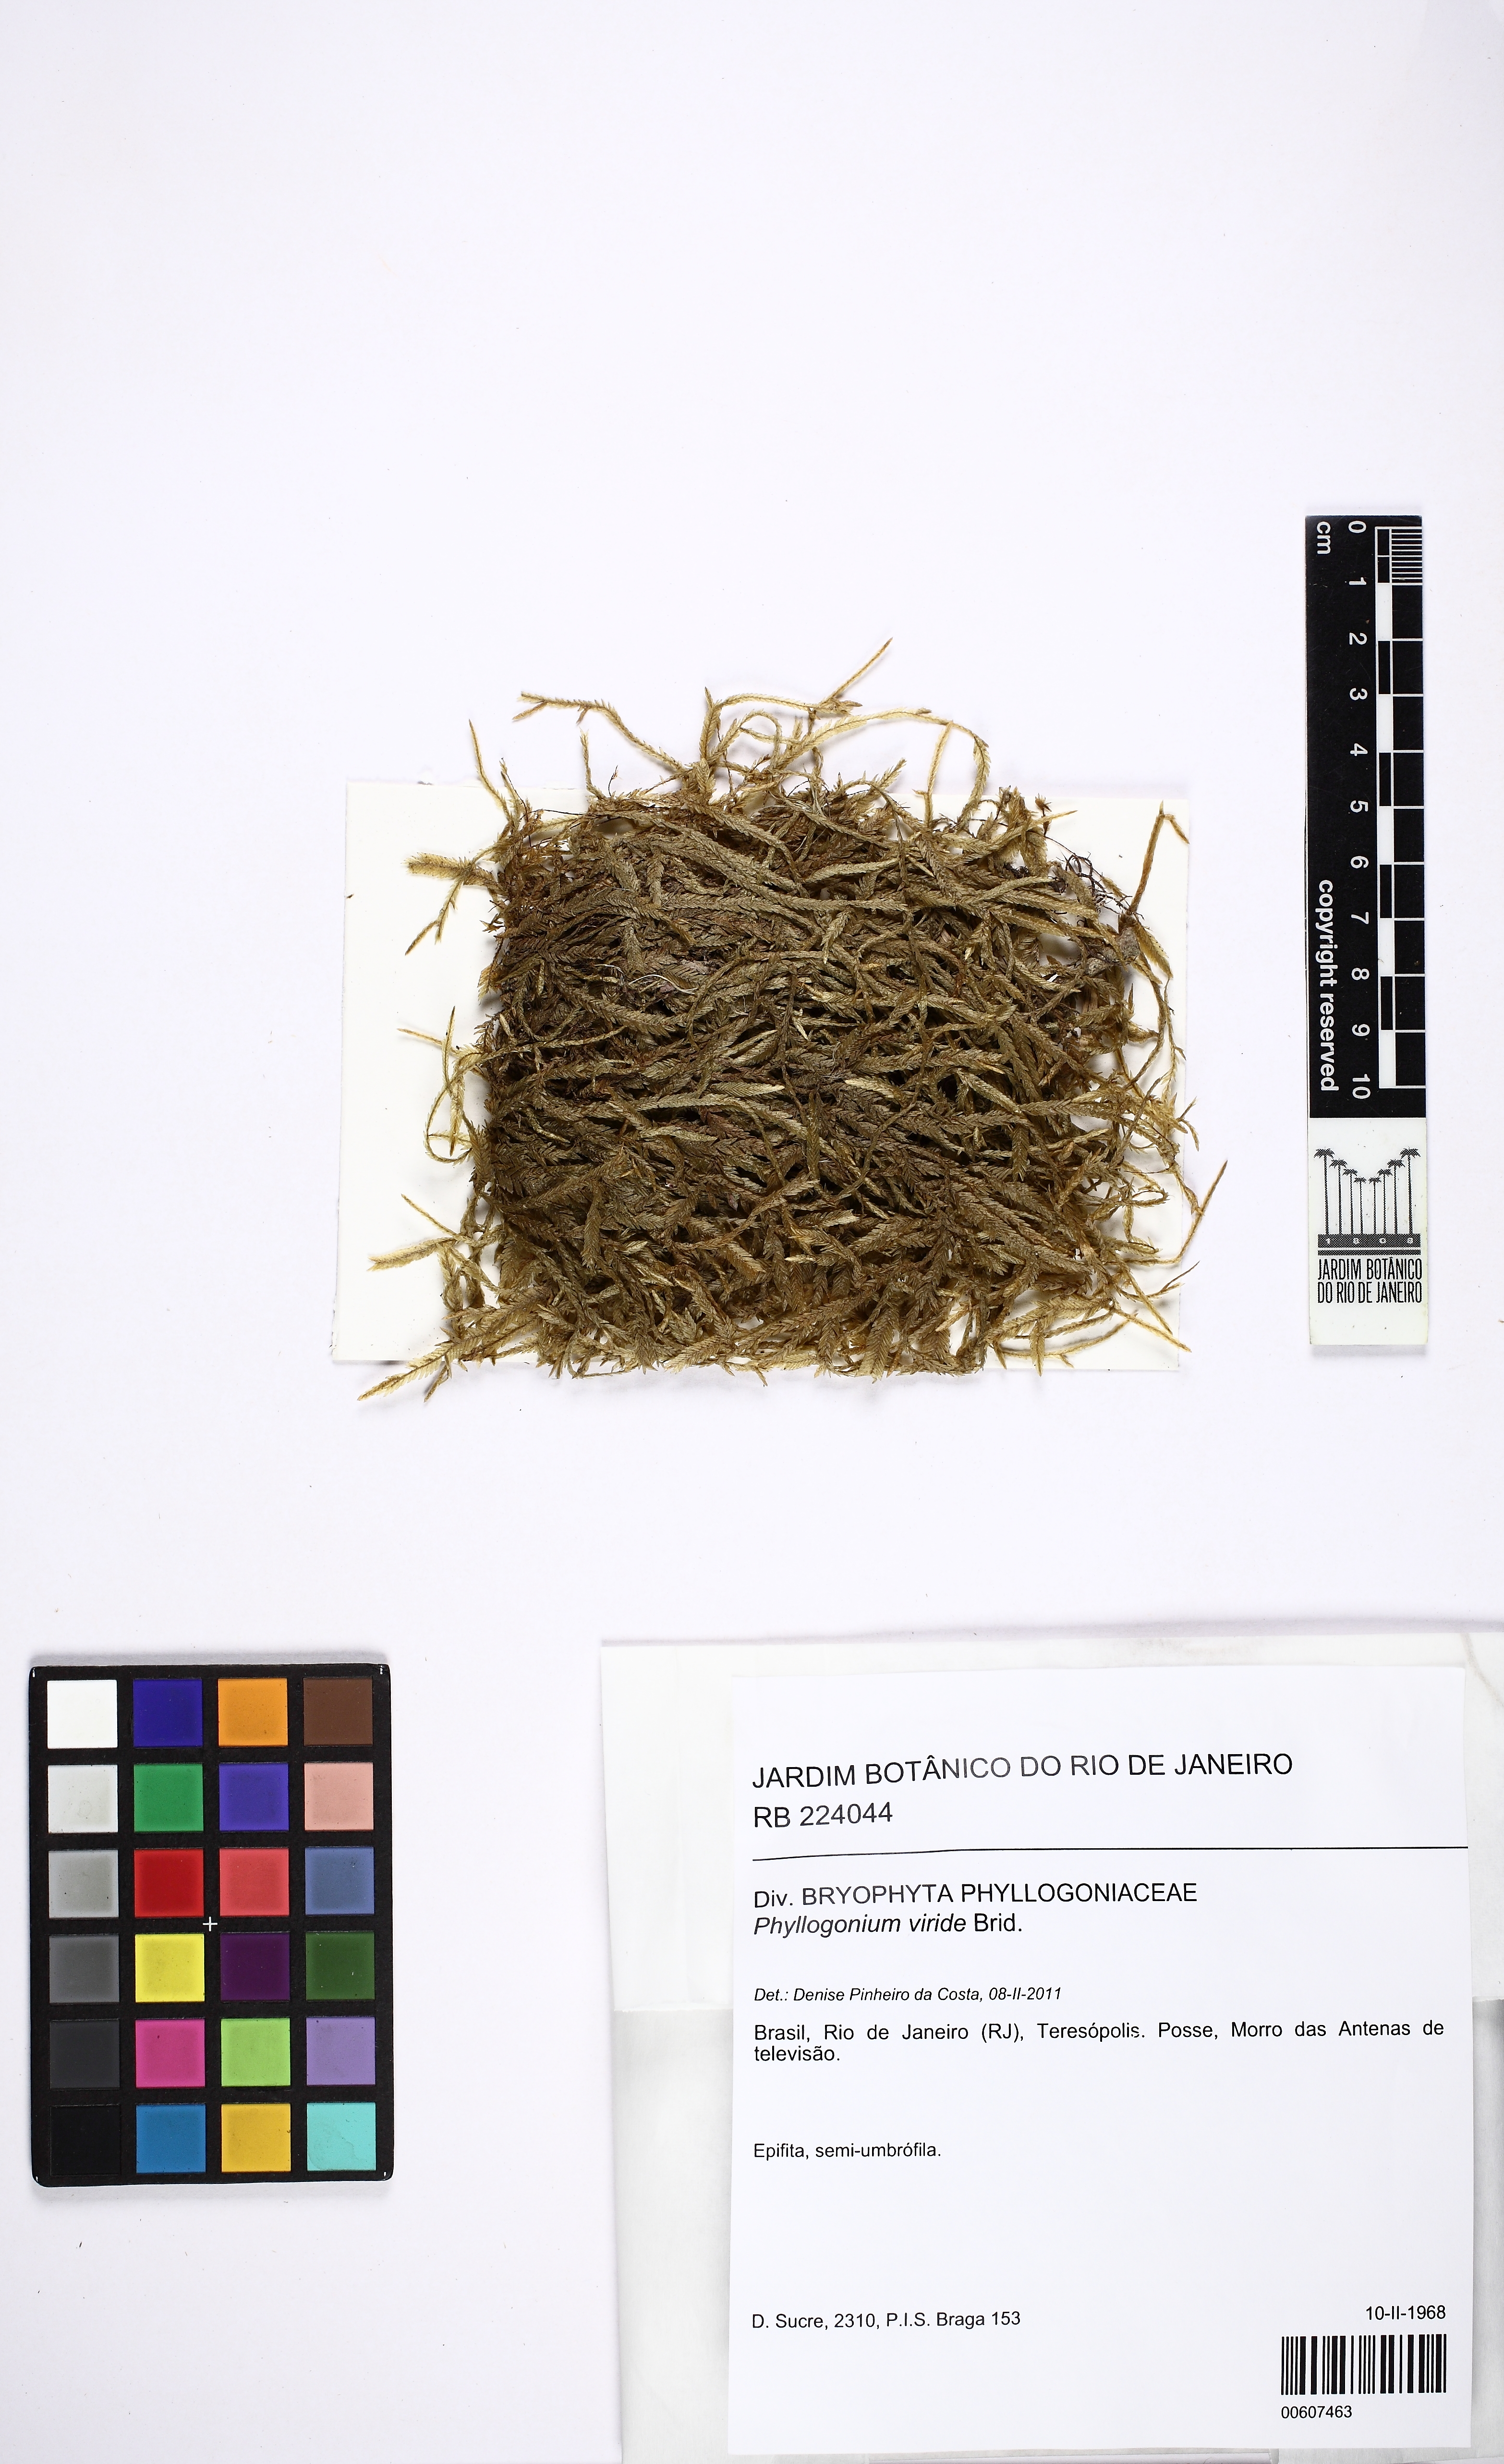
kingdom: Plantae
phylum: Bryophyta
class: Bryopsida
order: Hypnales
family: Phyllogoniaceae
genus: Phyllogonium
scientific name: Phyllogonium viride
